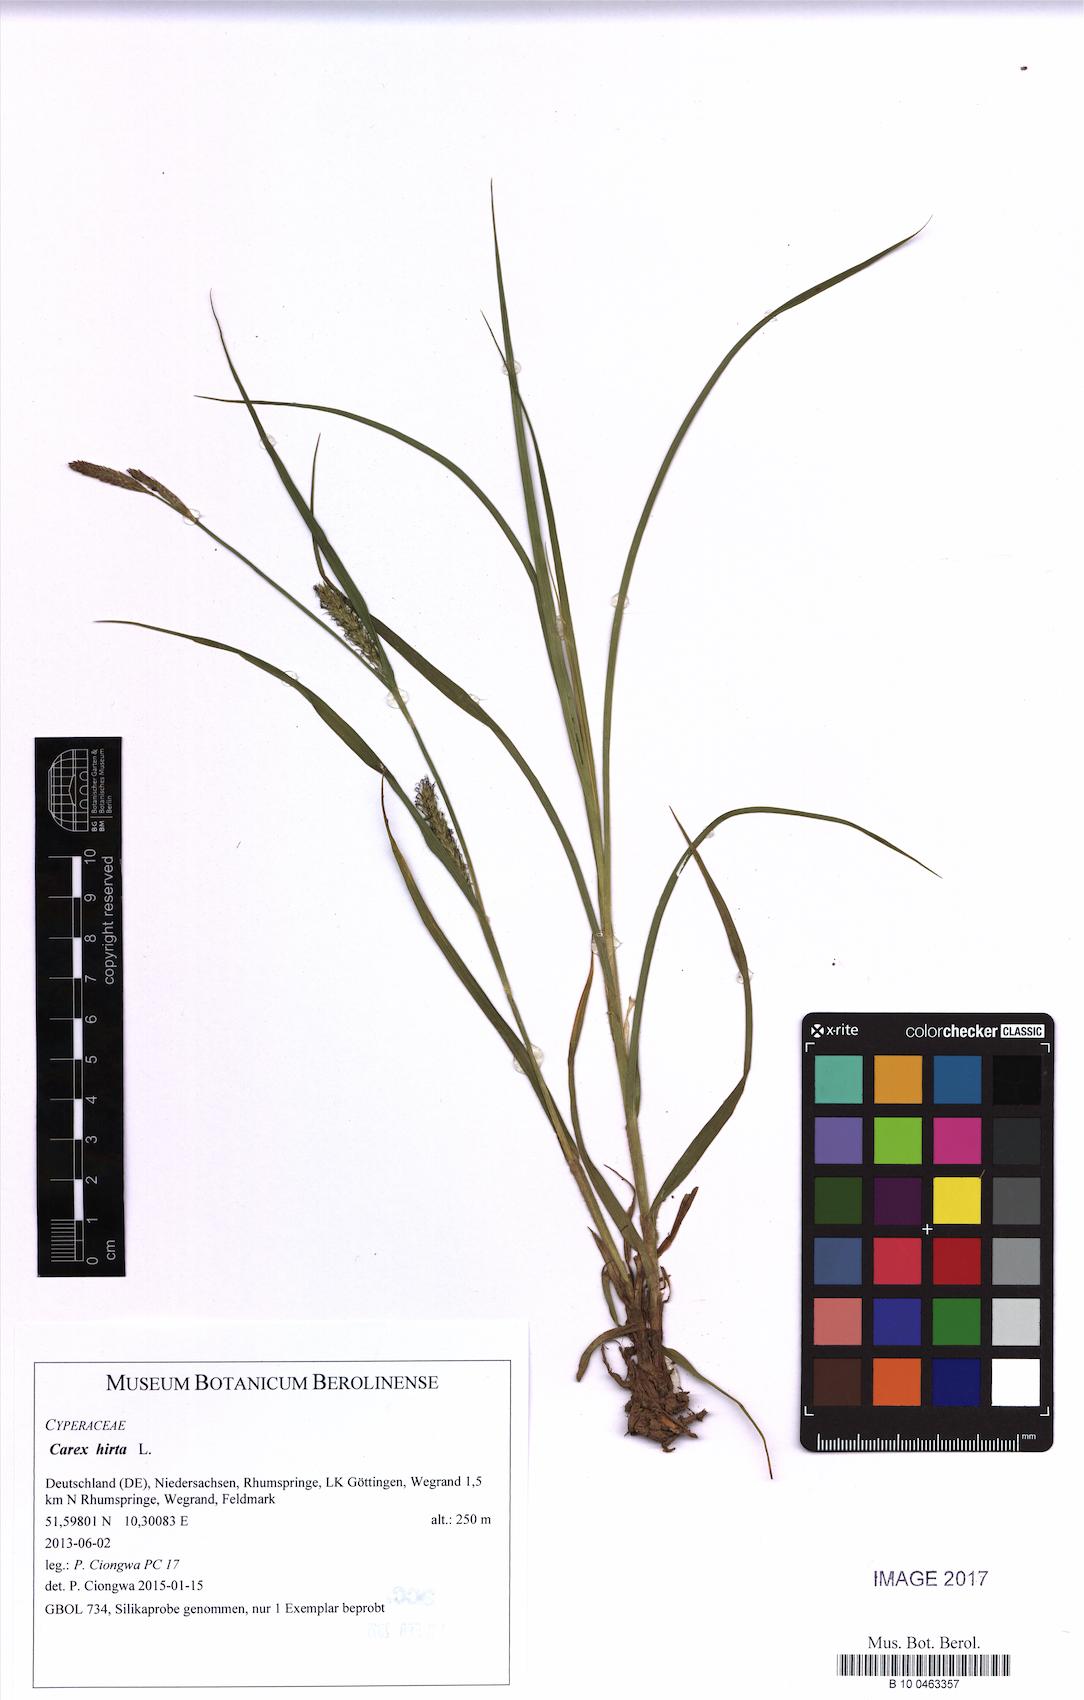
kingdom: Plantae
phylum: Tracheophyta
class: Liliopsida
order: Poales
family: Cyperaceae
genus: Carex
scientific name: Carex hirta
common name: Hairy sedge
